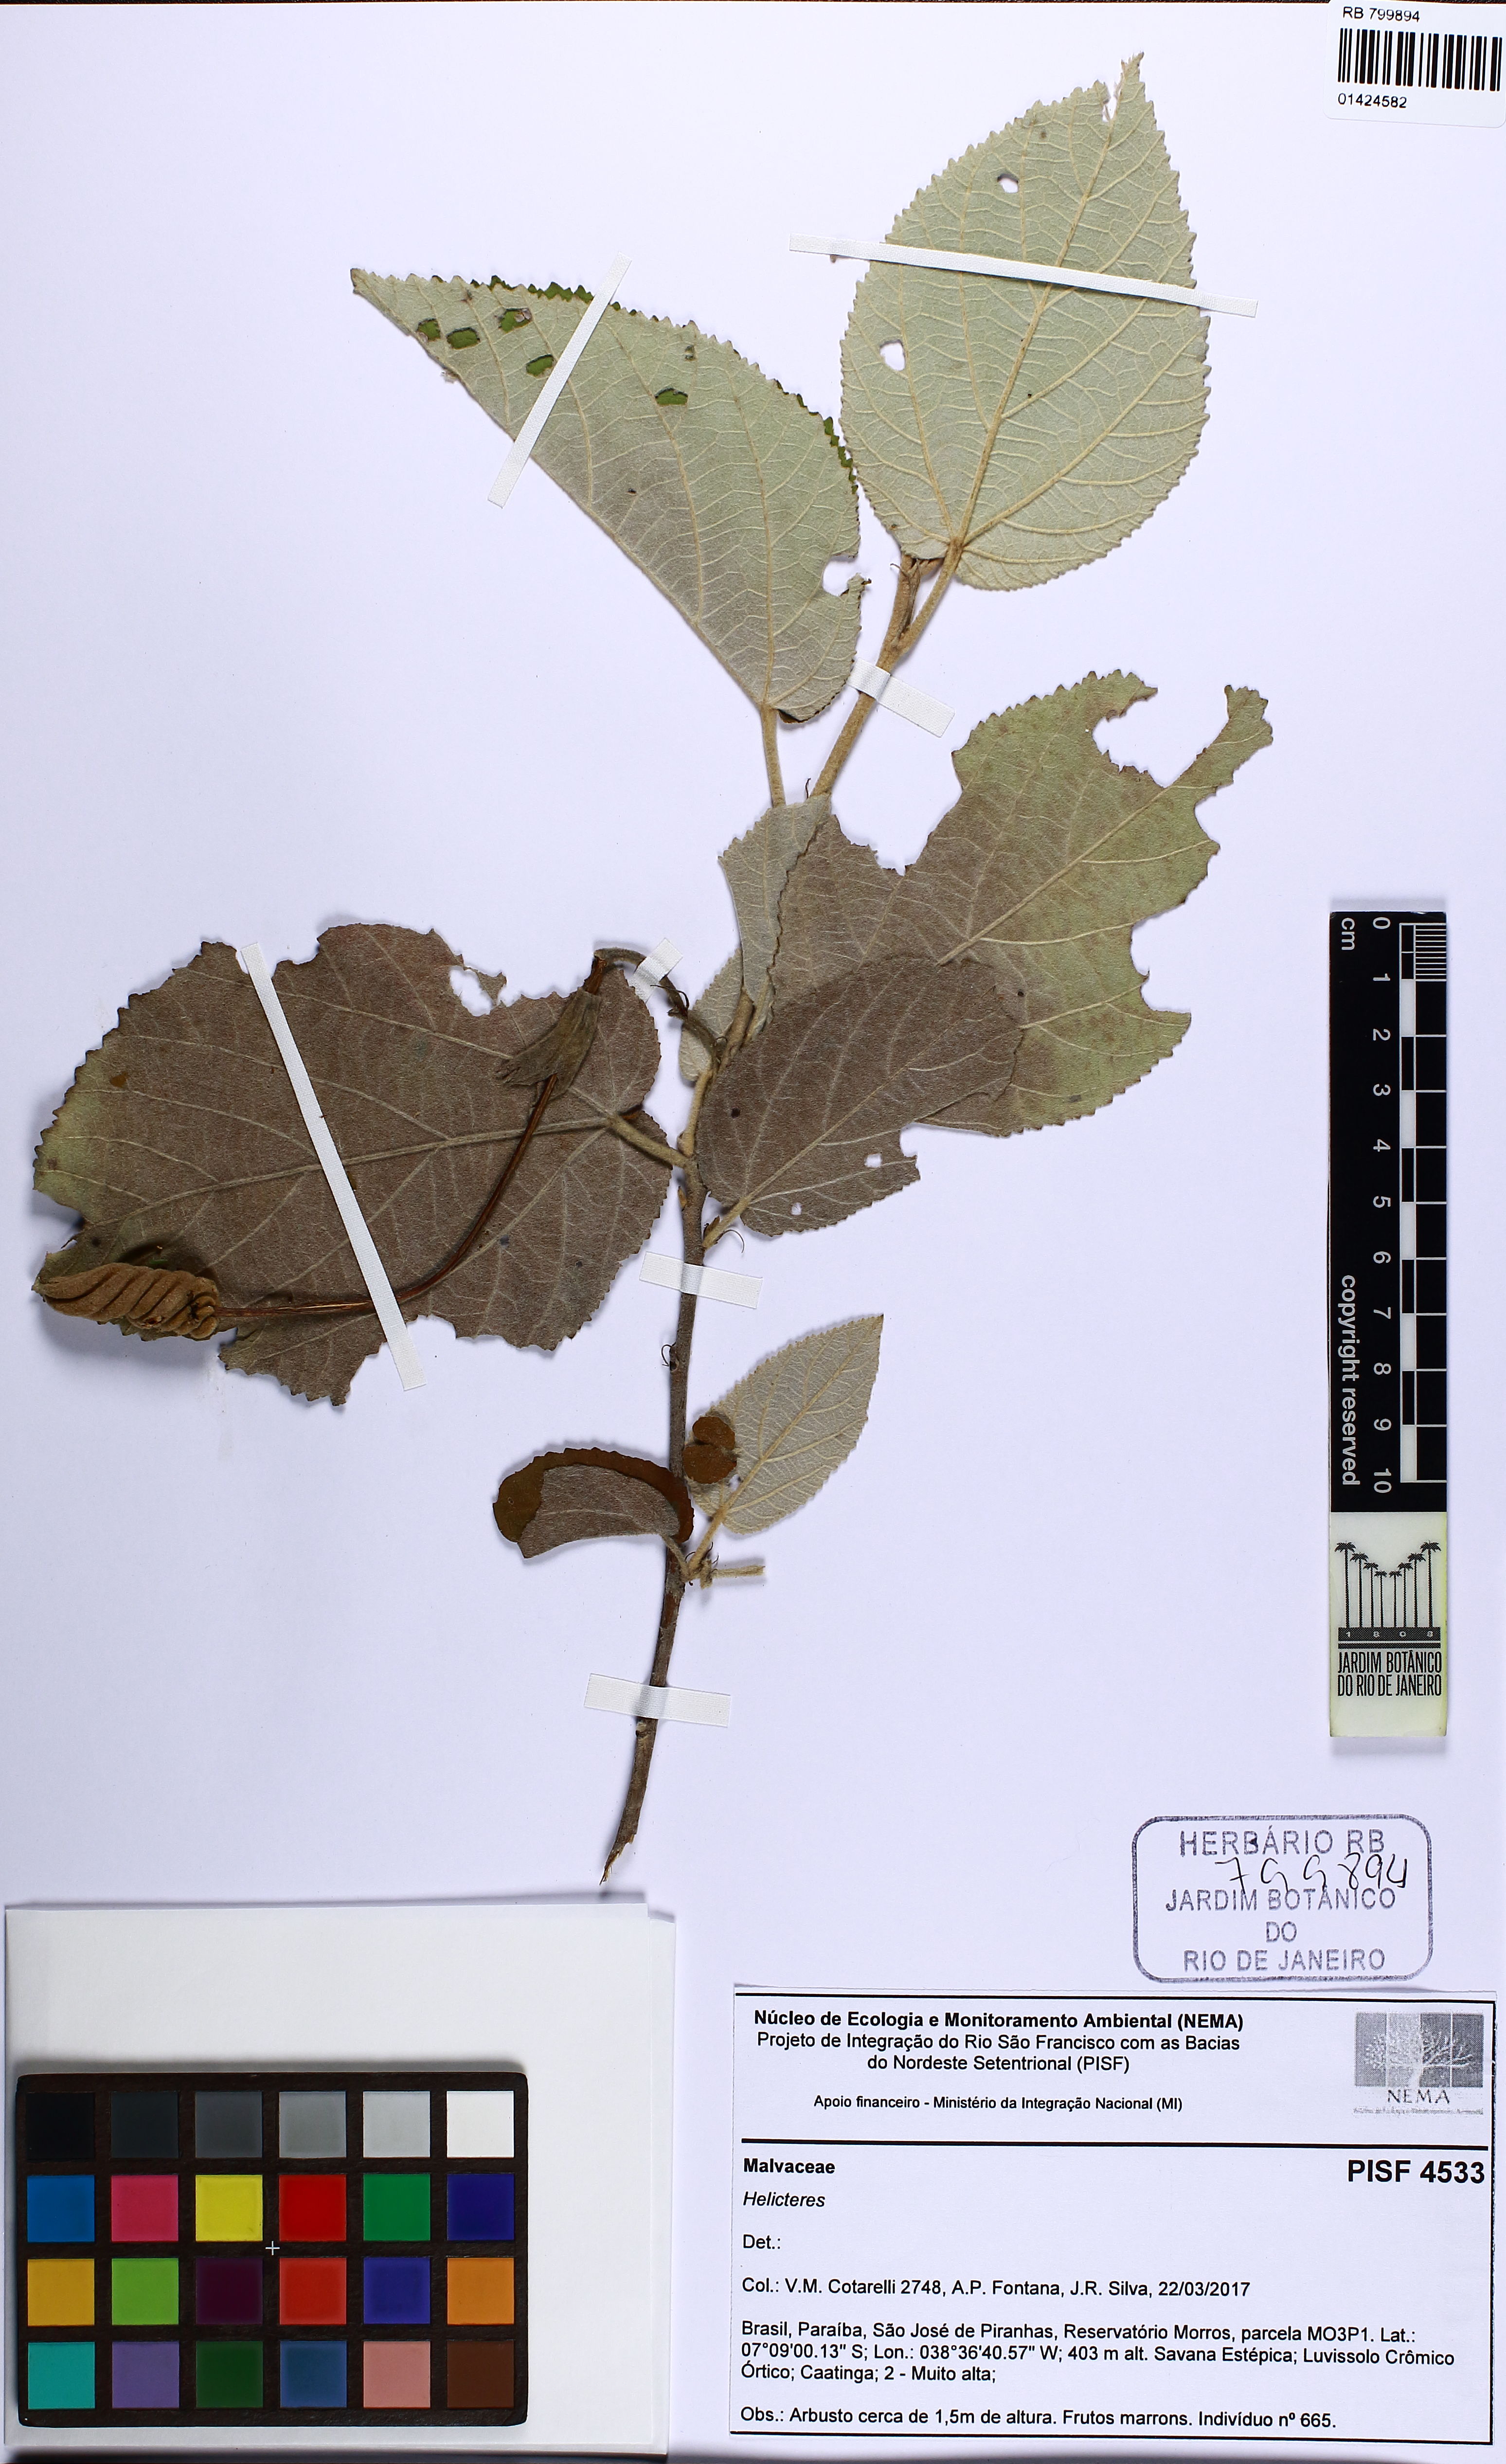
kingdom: Plantae
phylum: Tracheophyta
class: Magnoliopsida
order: Malvales
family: Malvaceae
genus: Helicteres
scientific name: Helicteres
